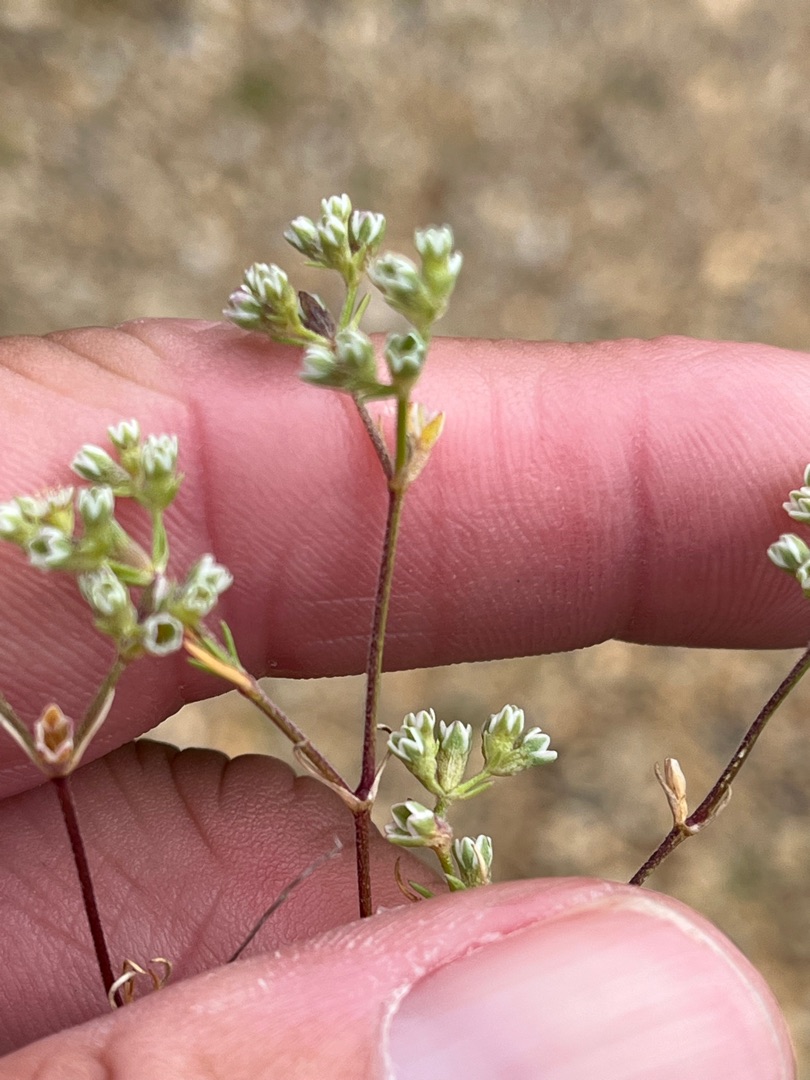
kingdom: Plantae
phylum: Tracheophyta
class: Magnoliopsida
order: Caryophyllales
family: Caryophyllaceae
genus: Scleranthus
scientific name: Scleranthus perennis
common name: Flerårig knavel
